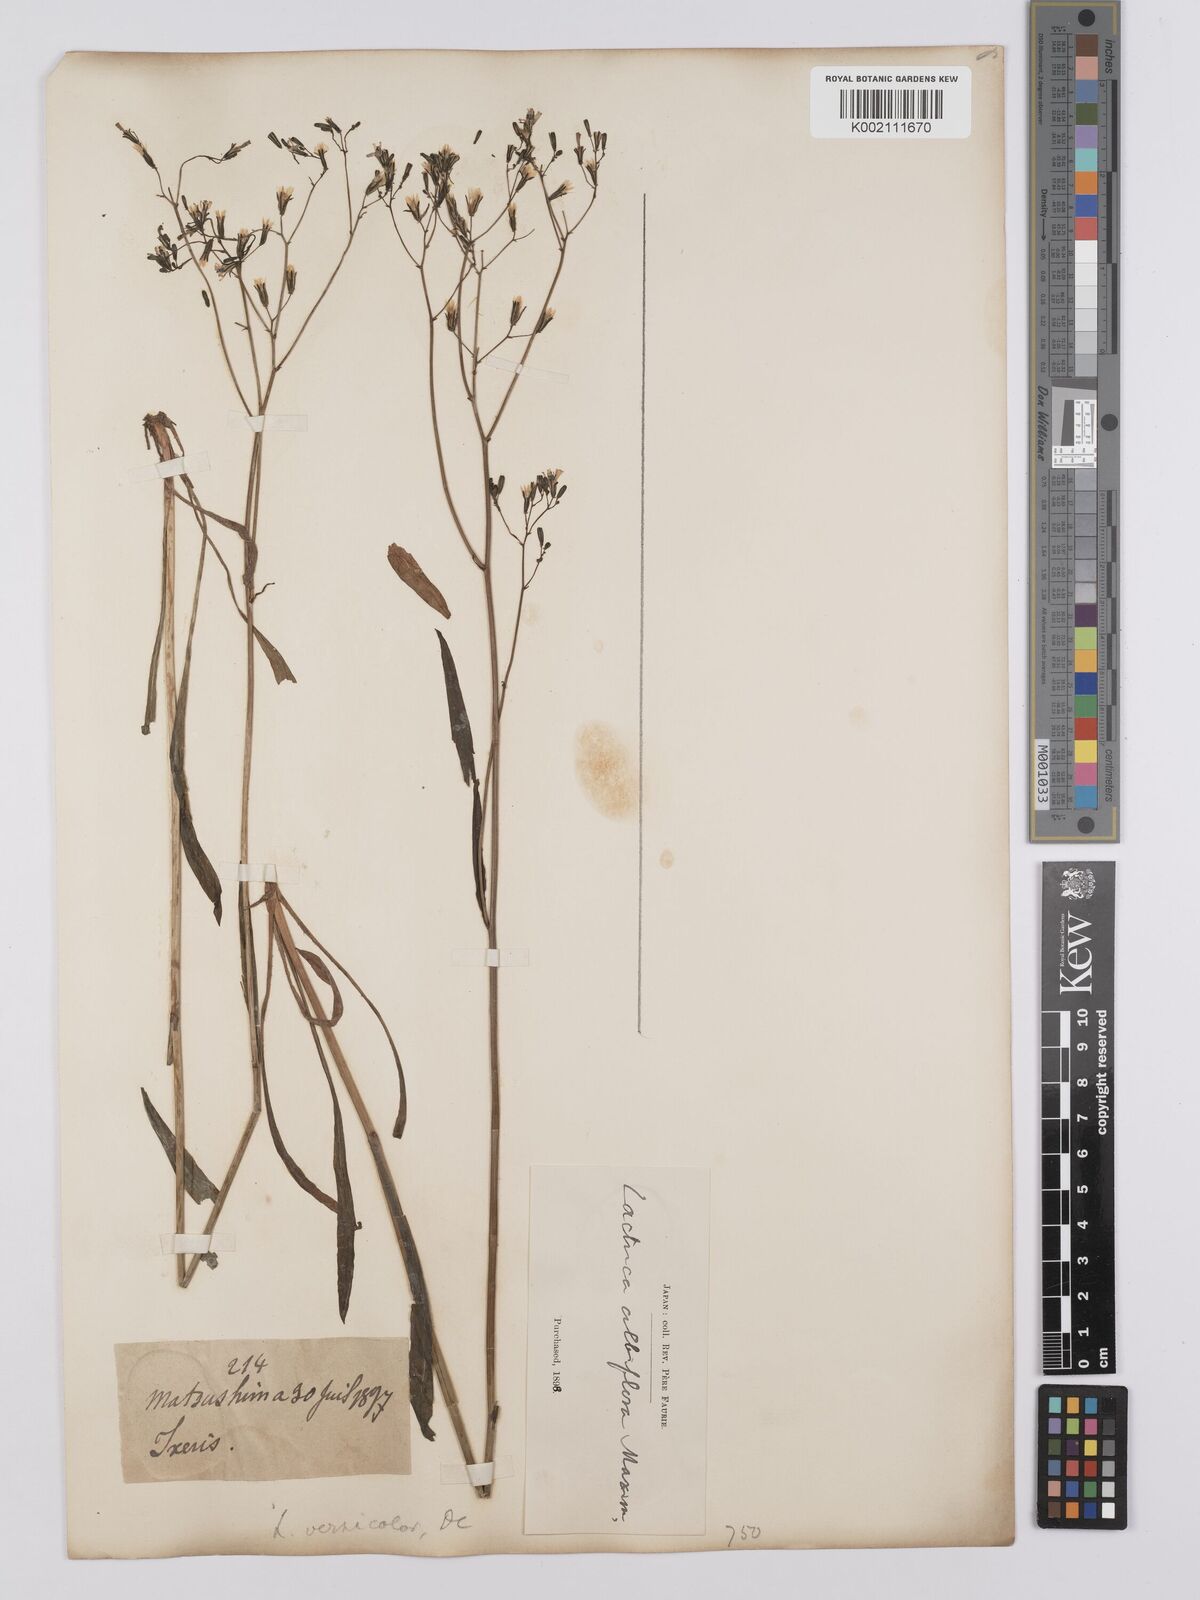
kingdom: Plantae
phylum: Tracheophyta
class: Magnoliopsida
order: Asterales
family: Asteraceae
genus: Ixeridium
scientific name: Ixeridium dentatum
